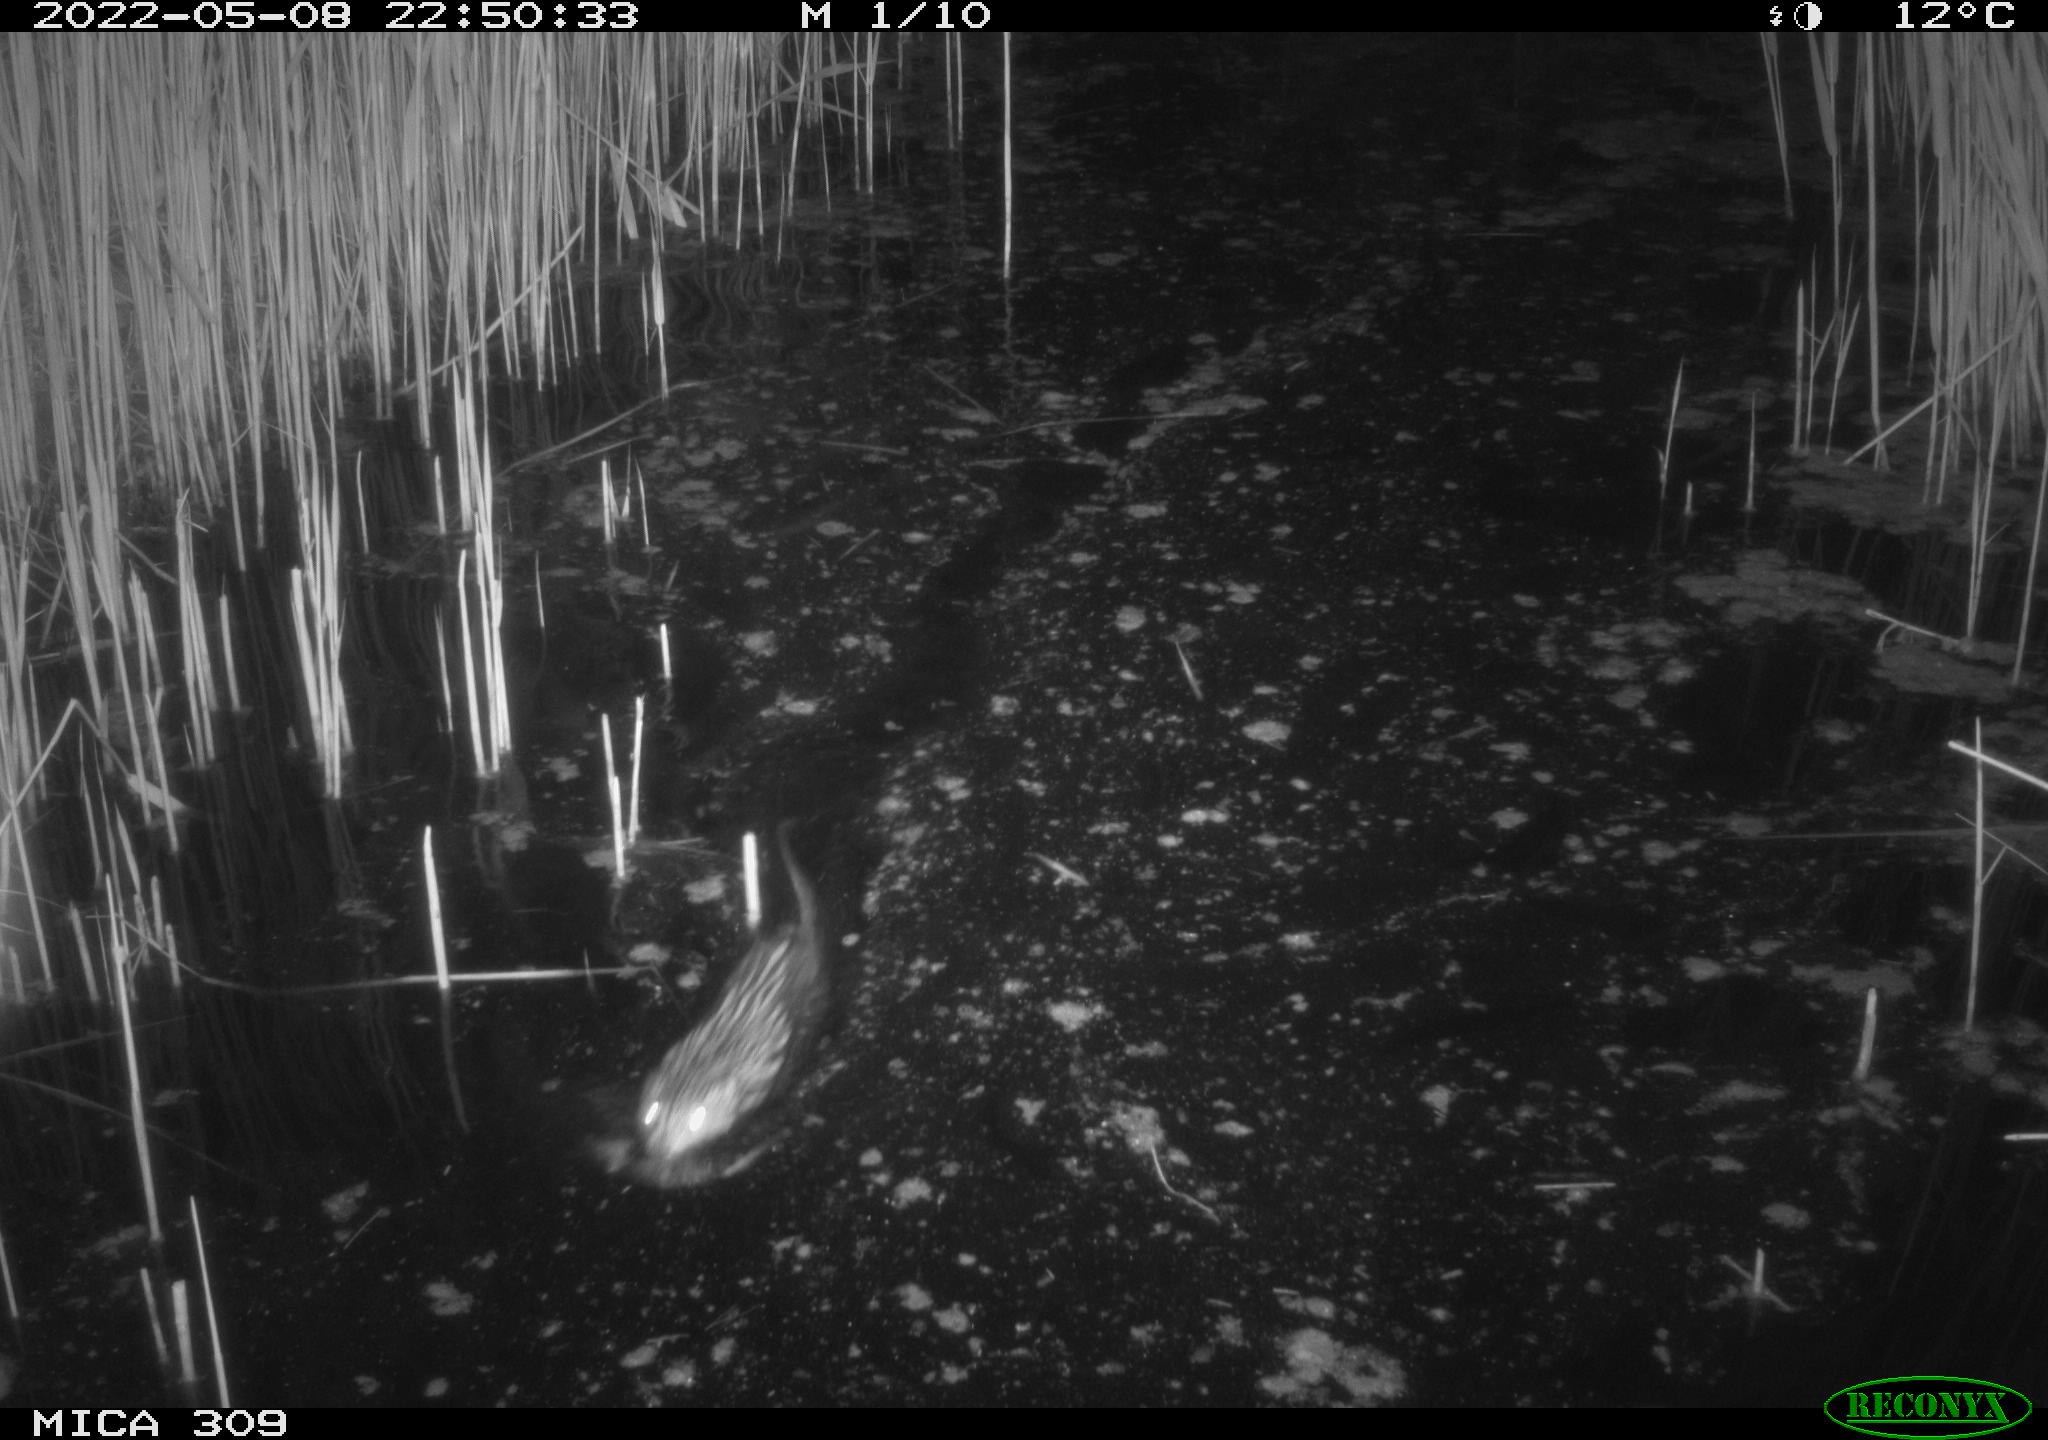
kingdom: Animalia
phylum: Chordata
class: Mammalia
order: Rodentia
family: Cricetidae
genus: Ondatra
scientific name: Ondatra zibethicus
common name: Muskrat
